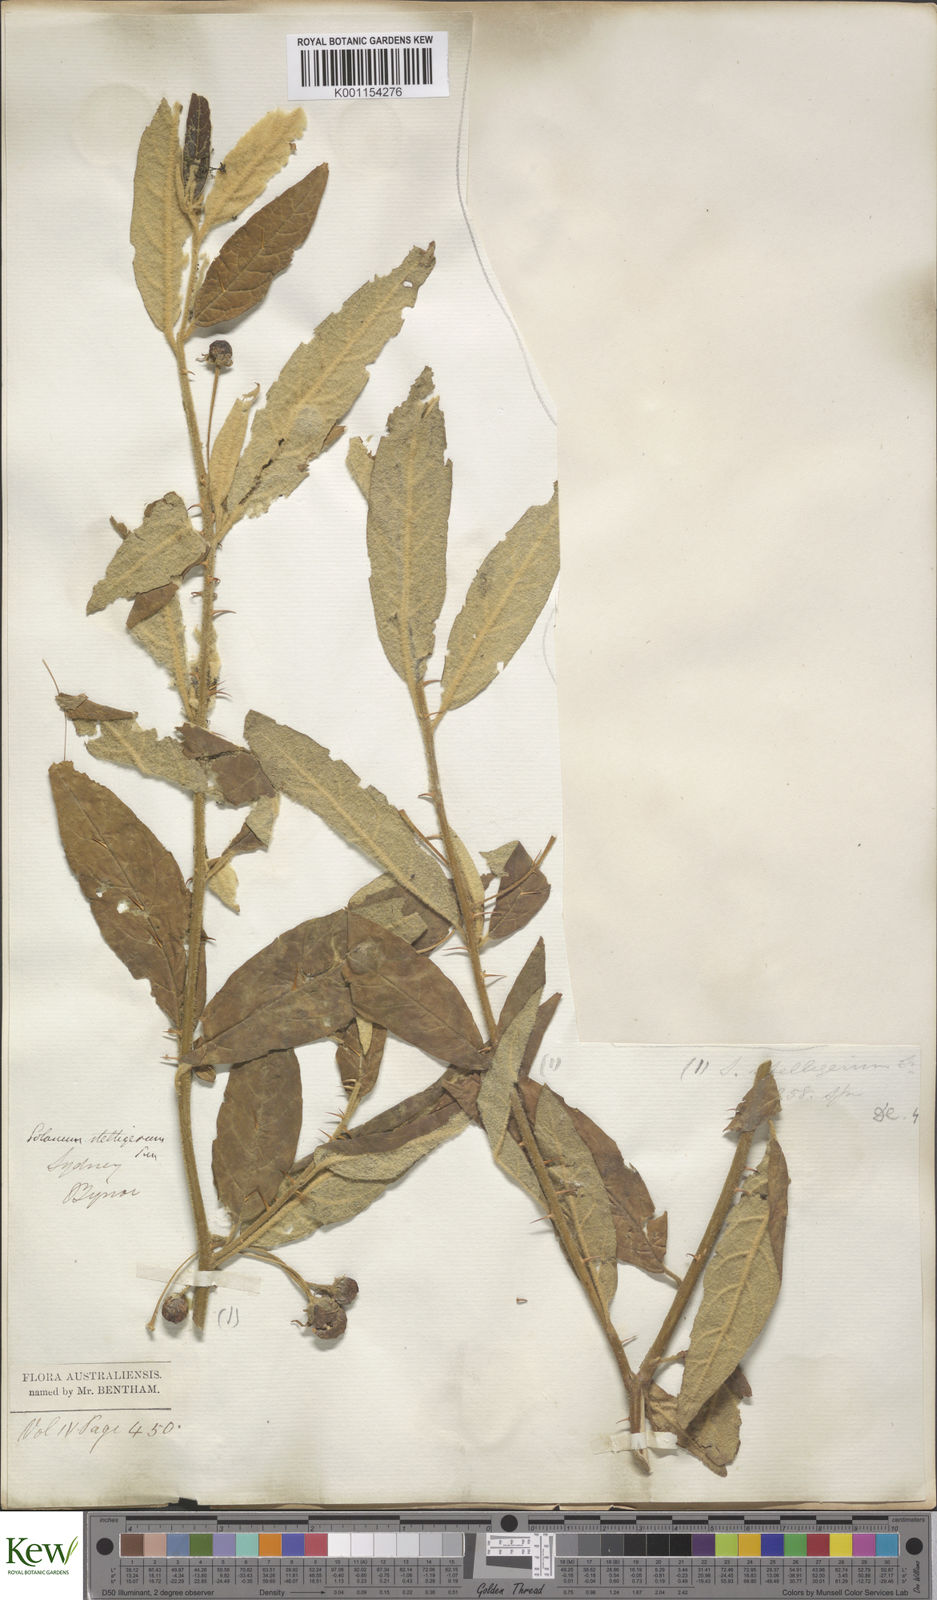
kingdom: Plantae
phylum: Tracheophyta
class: Magnoliopsida
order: Solanales
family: Solanaceae
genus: Solanum
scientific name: Solanum stelligerum
